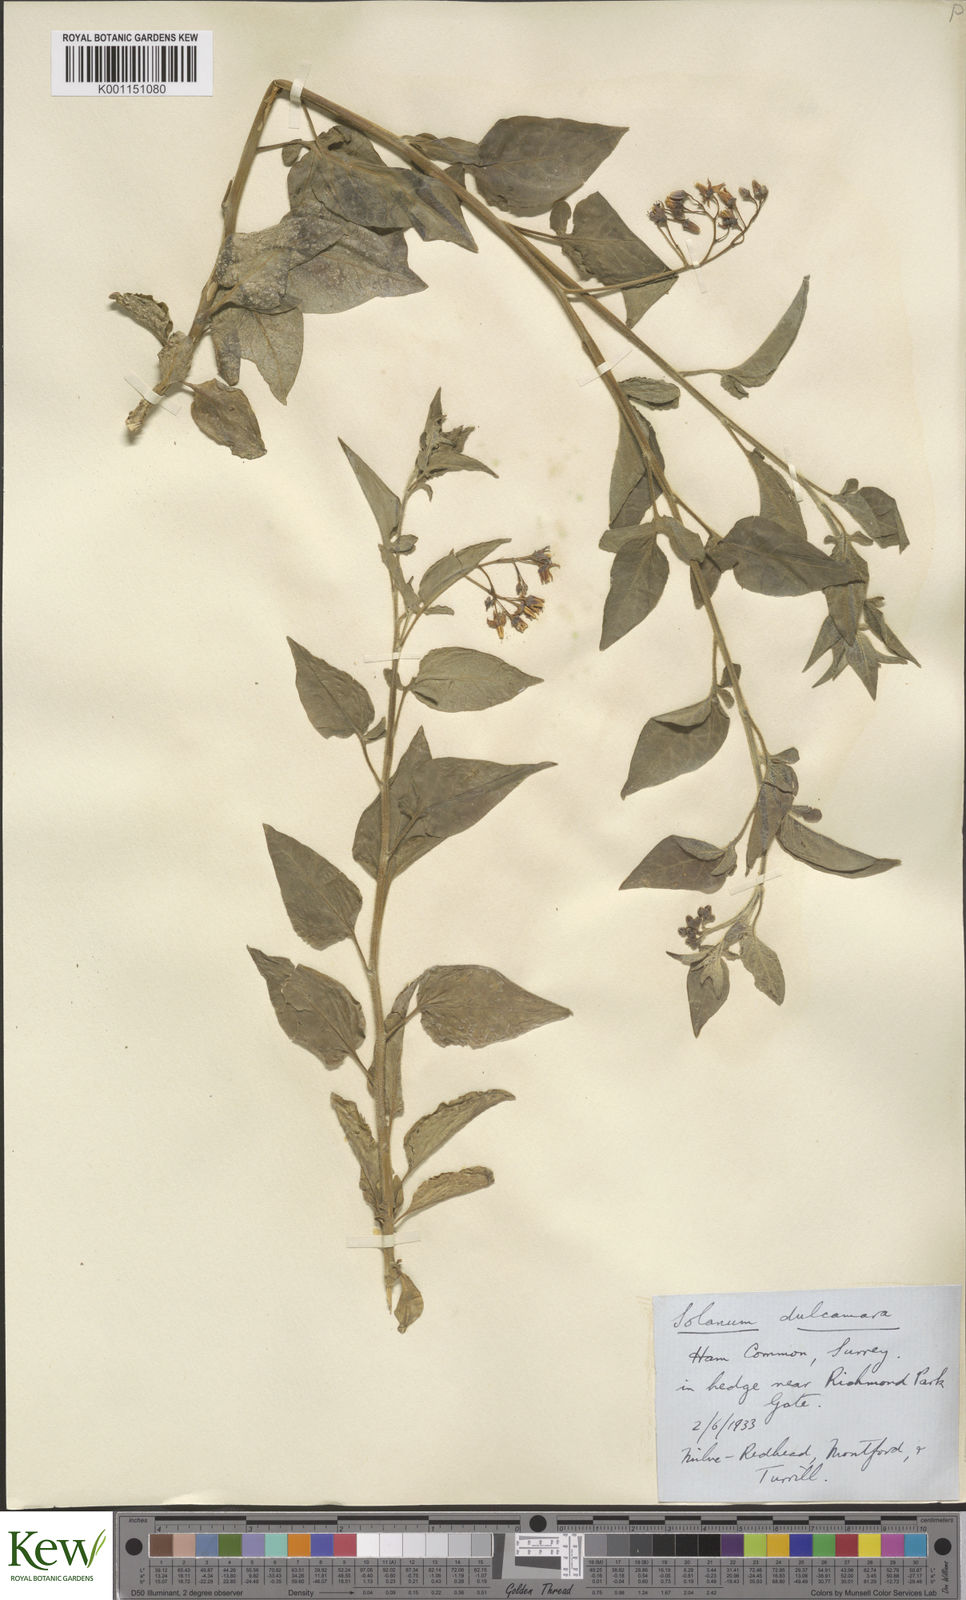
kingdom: Plantae
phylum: Tracheophyta
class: Magnoliopsida
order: Solanales
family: Solanaceae
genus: Solanum
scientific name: Solanum dulcamara
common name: Climbing nightshade
